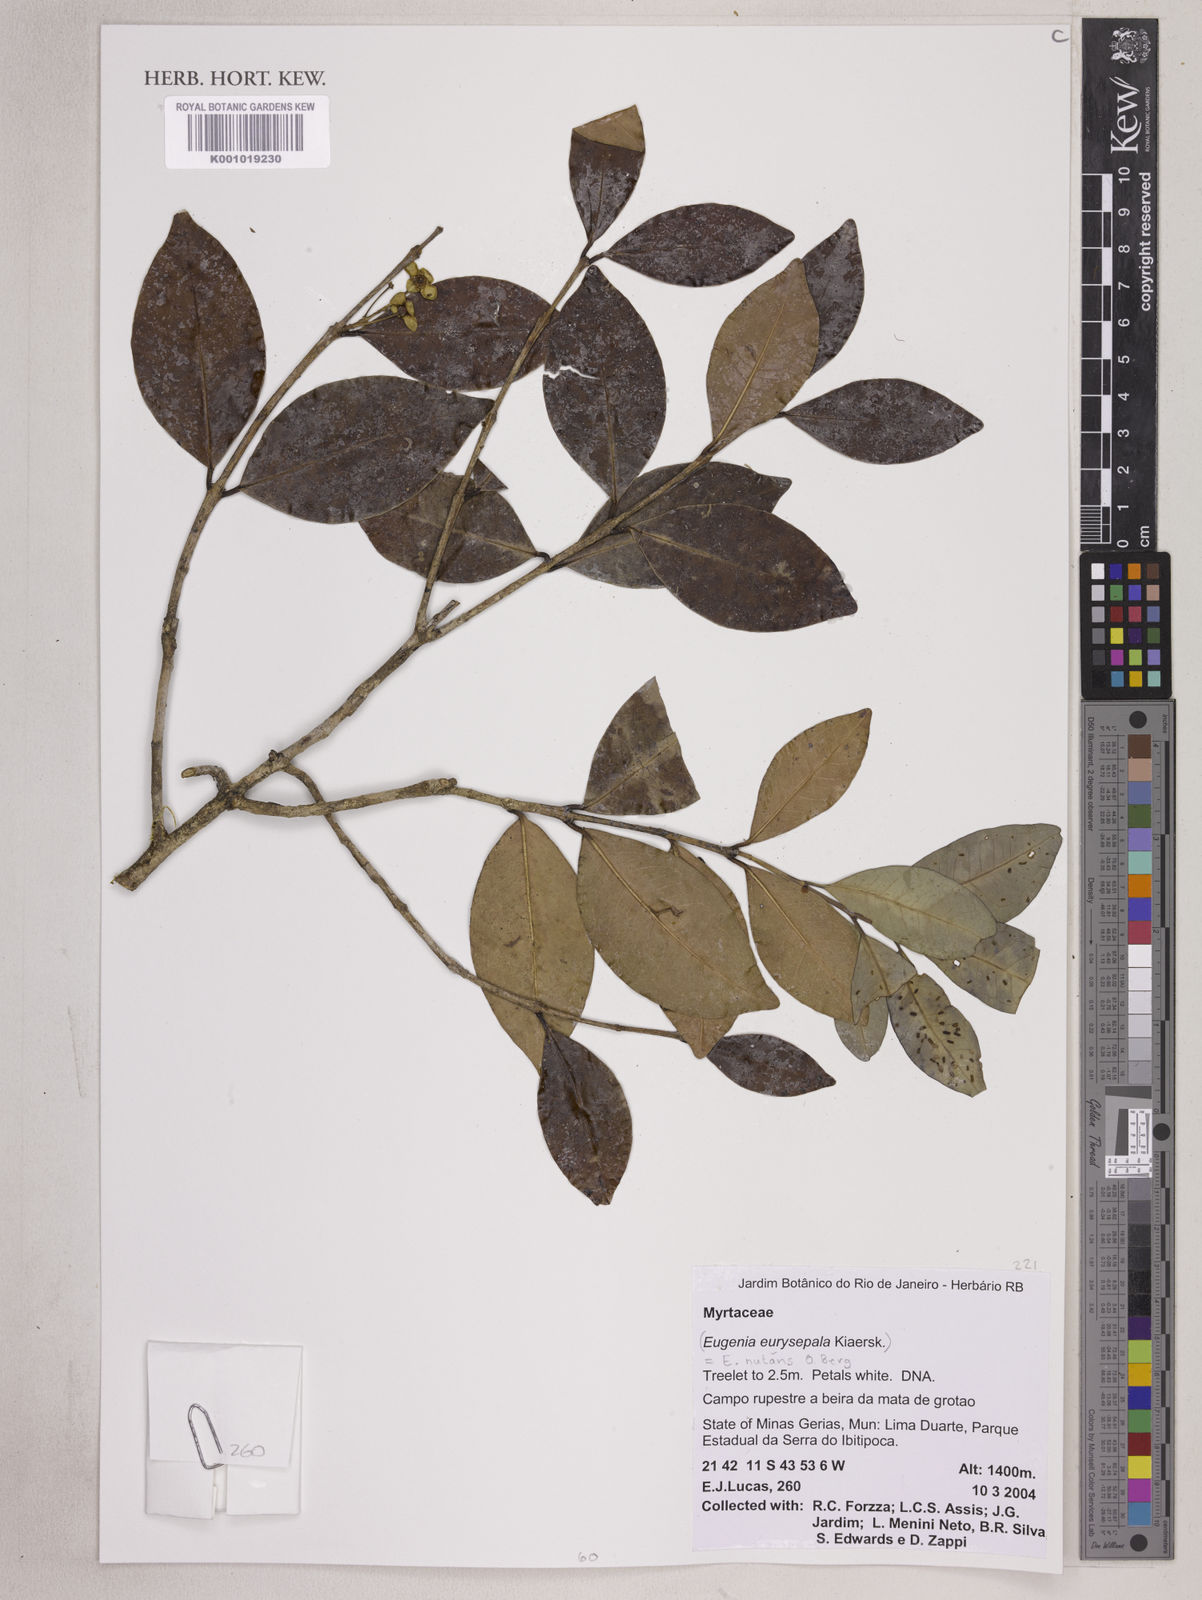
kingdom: Plantae
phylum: Tracheophyta
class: Magnoliopsida
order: Myrtales
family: Myrtaceae
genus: Eugenia
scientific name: Eugenia nutans
